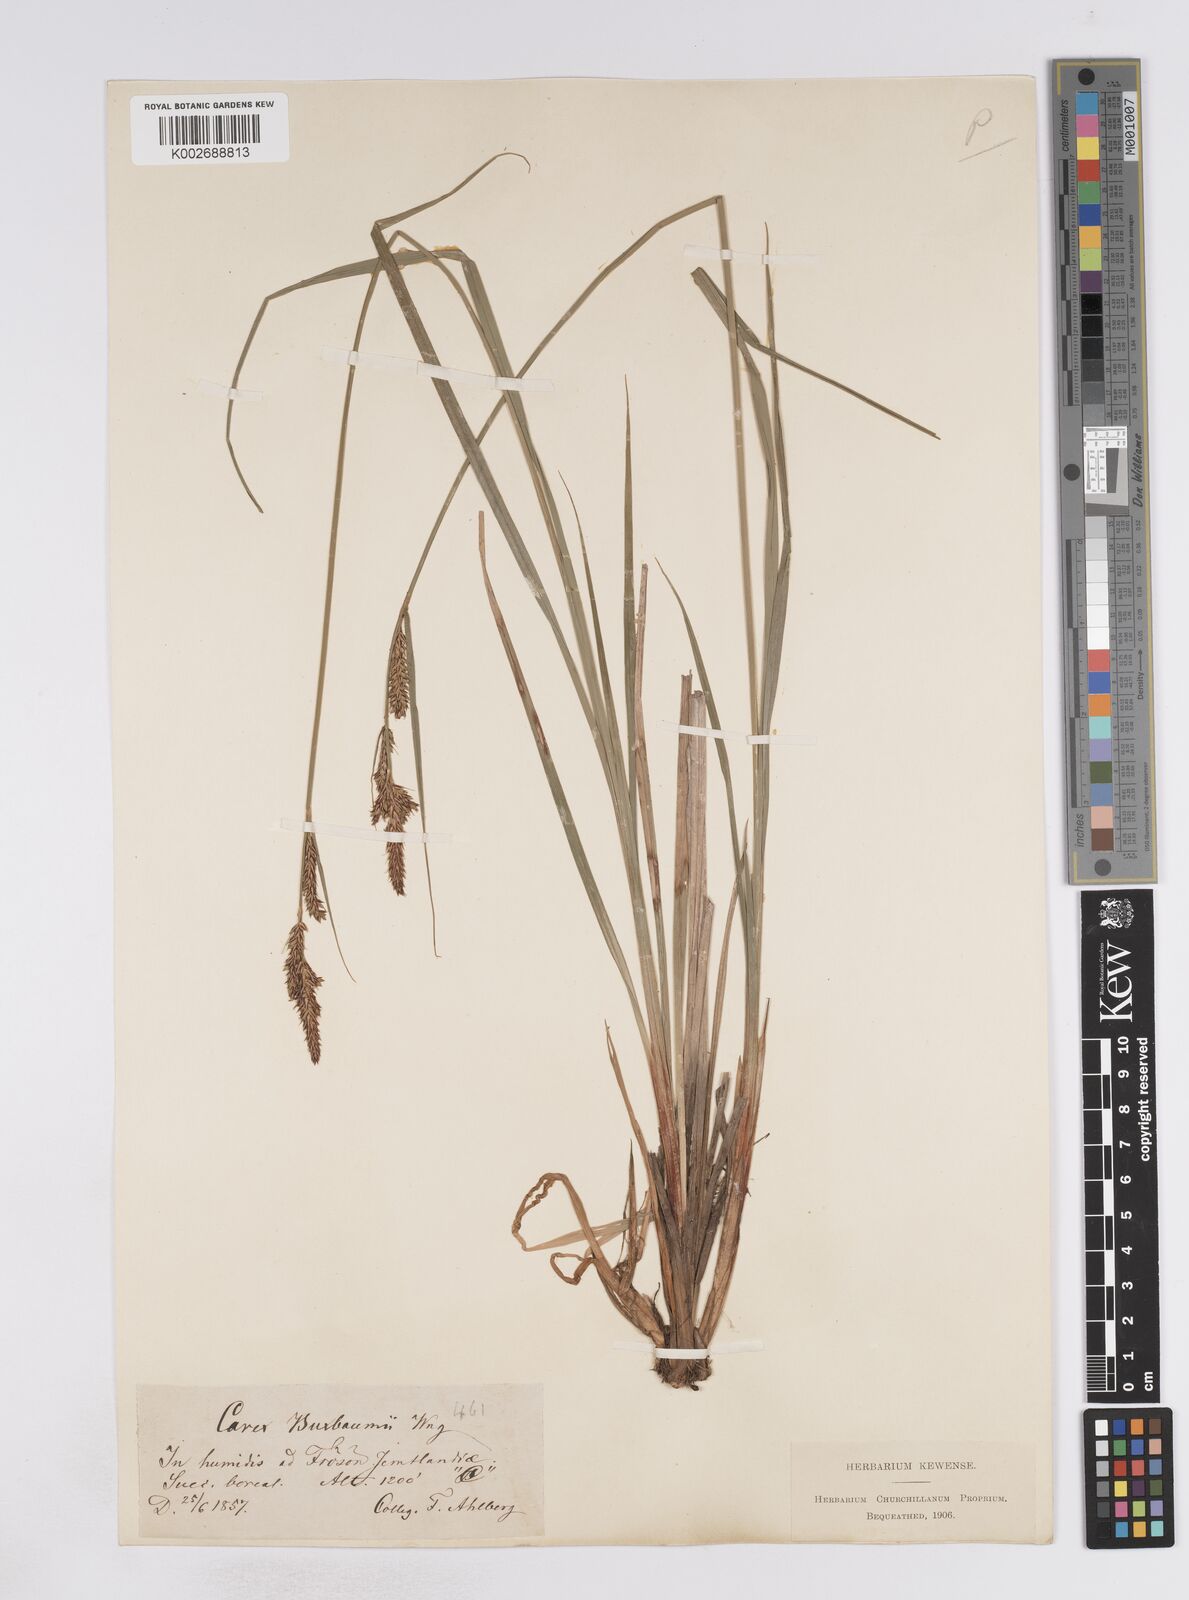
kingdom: Plantae
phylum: Tracheophyta
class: Liliopsida
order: Poales
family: Cyperaceae
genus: Carex
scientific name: Carex buxbaumii
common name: Club sedge
